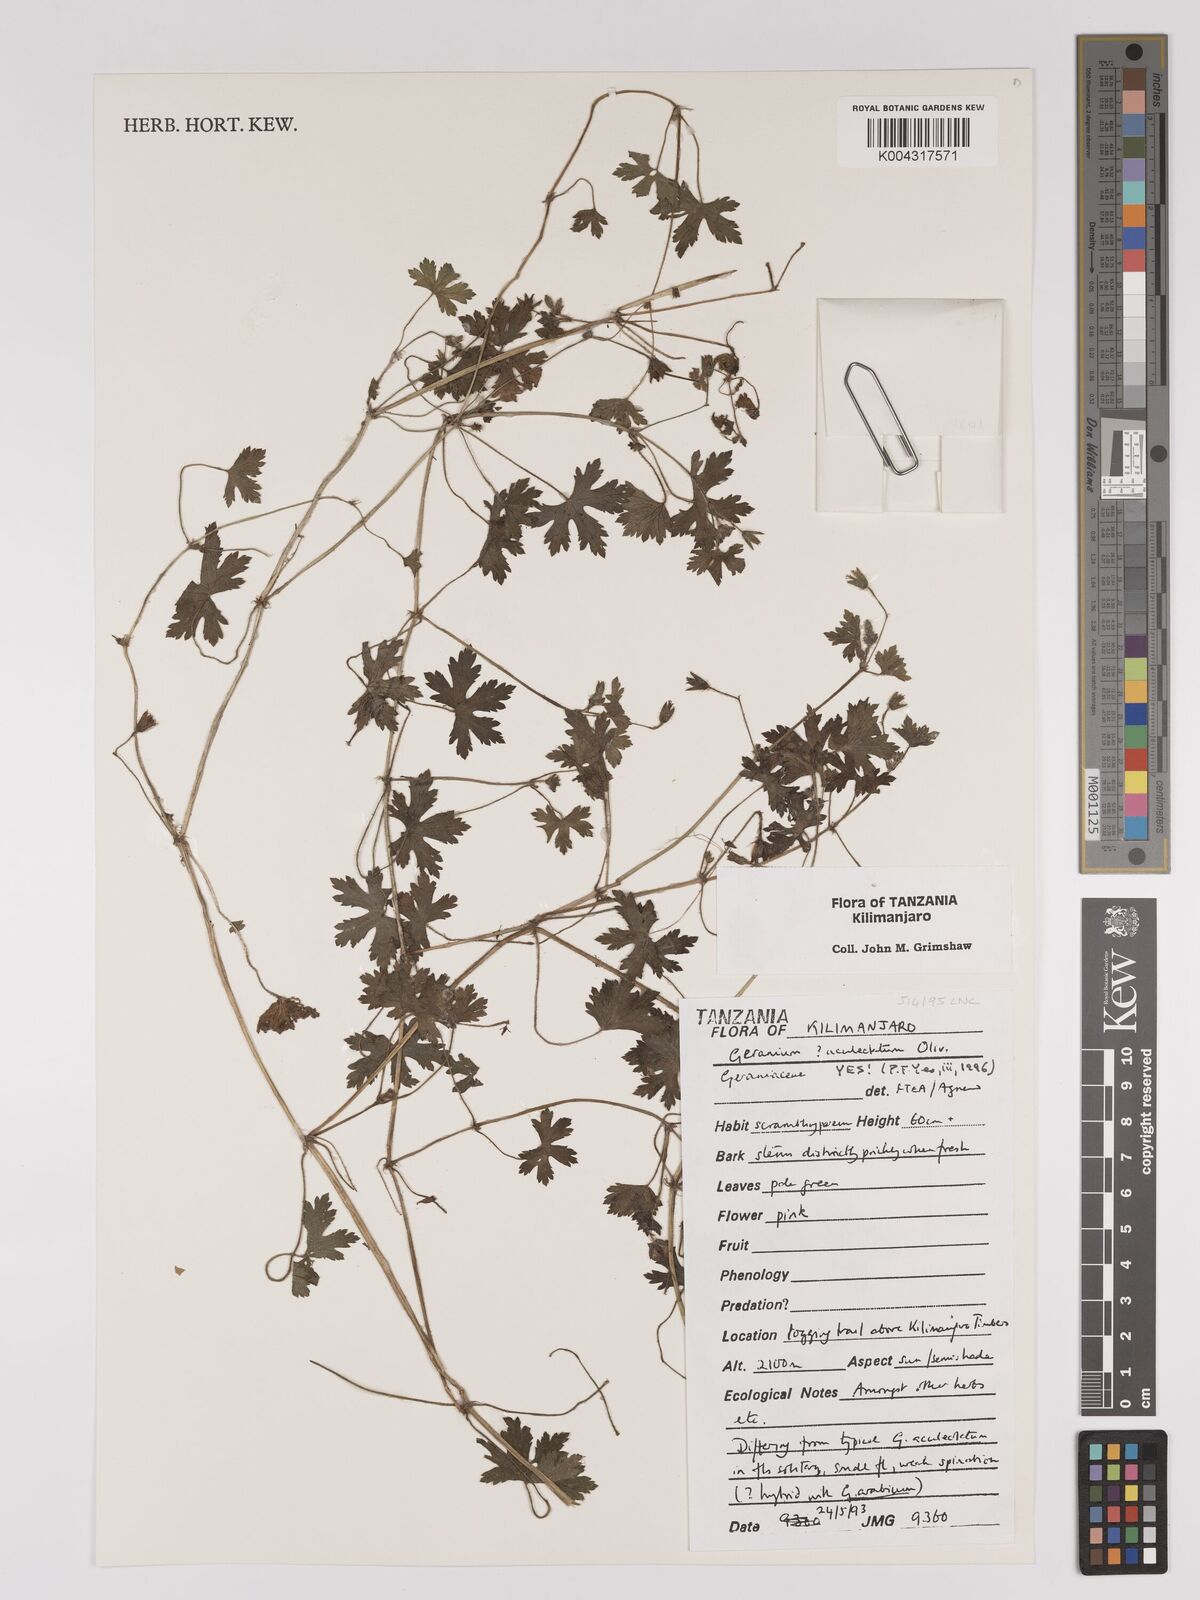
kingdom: Plantae
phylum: Tracheophyta
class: Magnoliopsida
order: Geraniales
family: Geraniaceae
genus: Geranium
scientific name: Geranium aculeolatum
